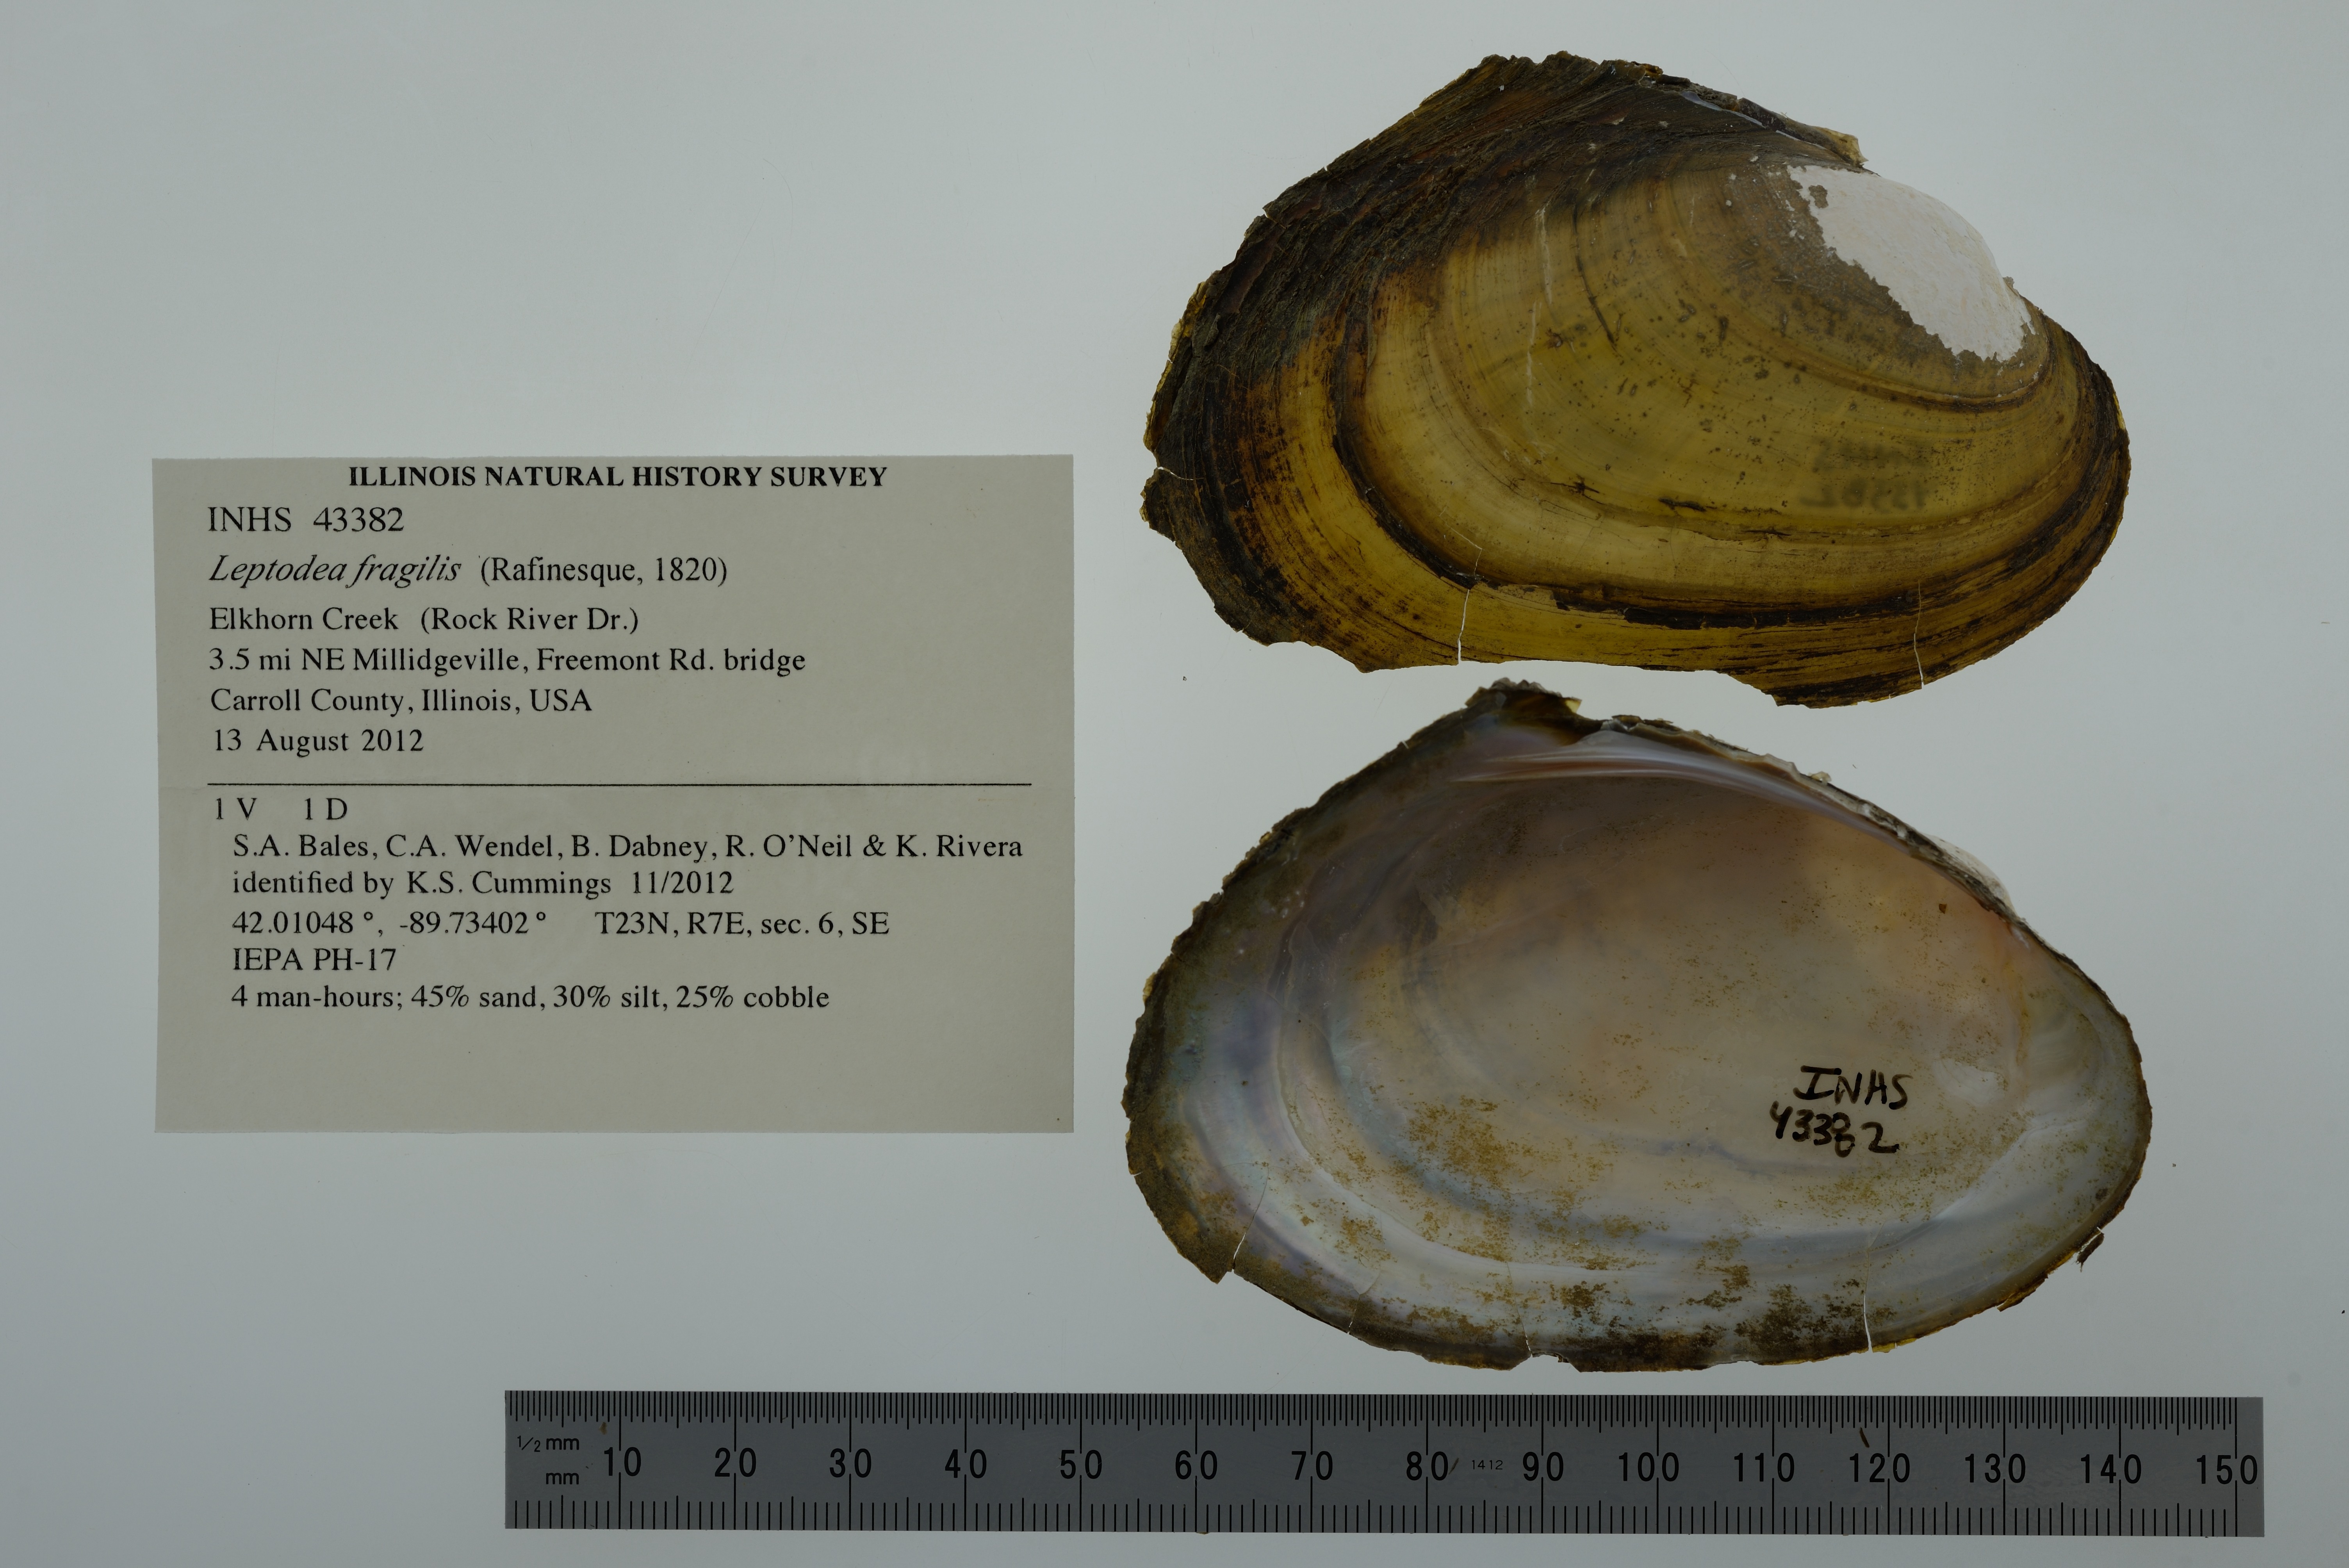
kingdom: Animalia
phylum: Mollusca
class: Bivalvia
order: Unionida
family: Unionidae
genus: Potamilus
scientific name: Potamilus fragilis
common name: Fragile papershell
